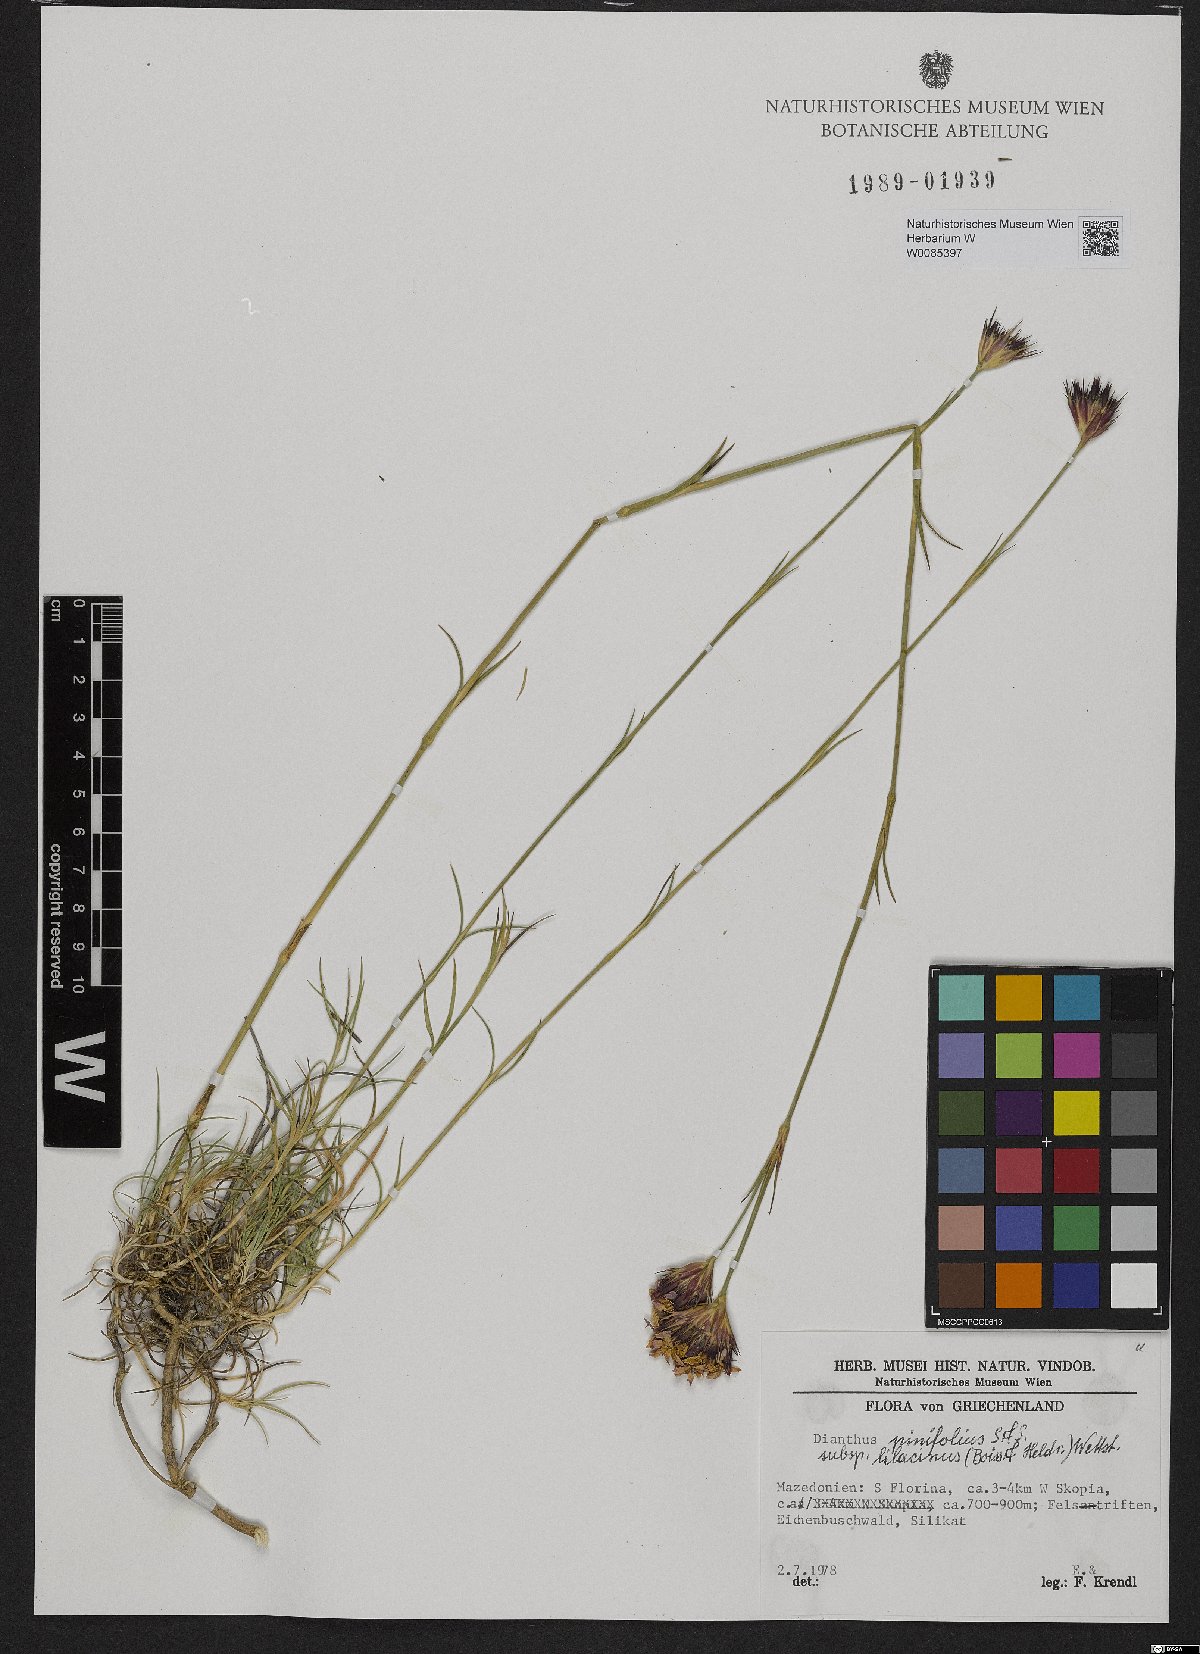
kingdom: Plantae
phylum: Tracheophyta
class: Magnoliopsida
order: Caryophyllales
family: Caryophyllaceae
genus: Dianthus
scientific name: Dianthus pinifolius
